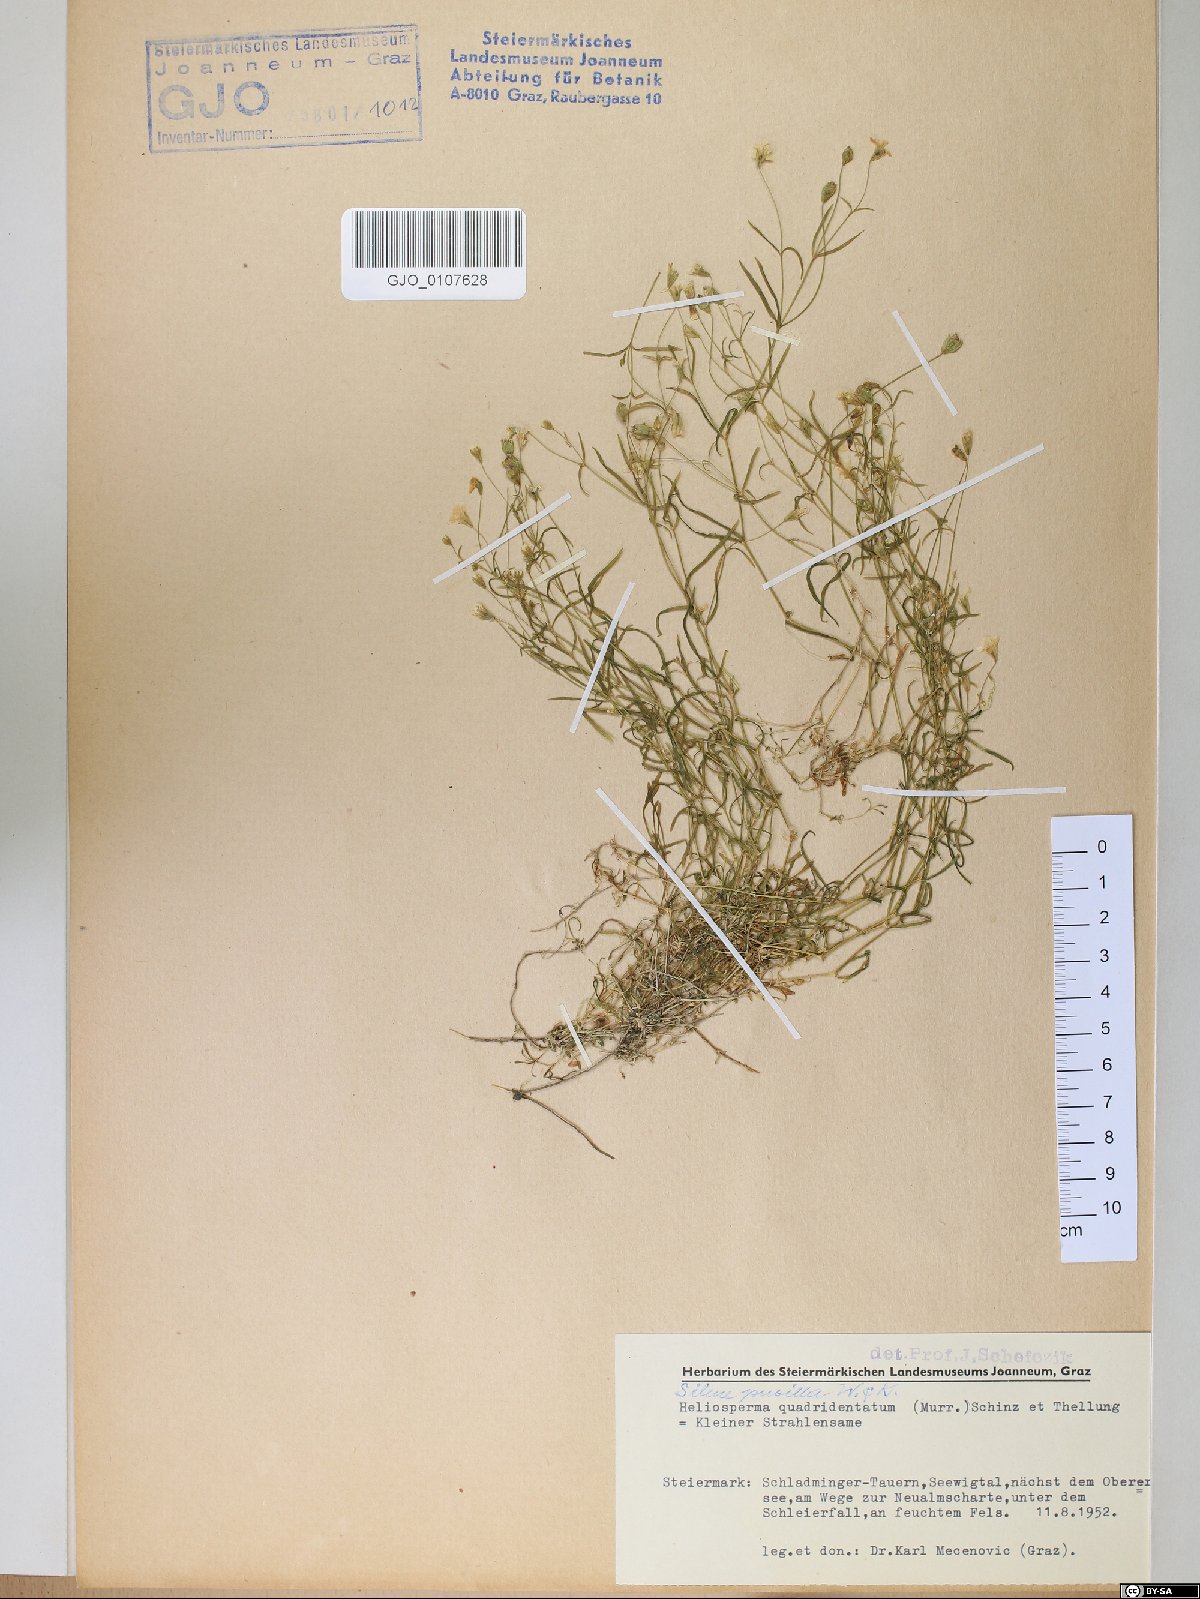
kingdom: Plantae
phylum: Tracheophyta
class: Magnoliopsida
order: Caryophyllales
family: Caryophyllaceae
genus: Heliosperma
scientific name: Heliosperma alpestre
